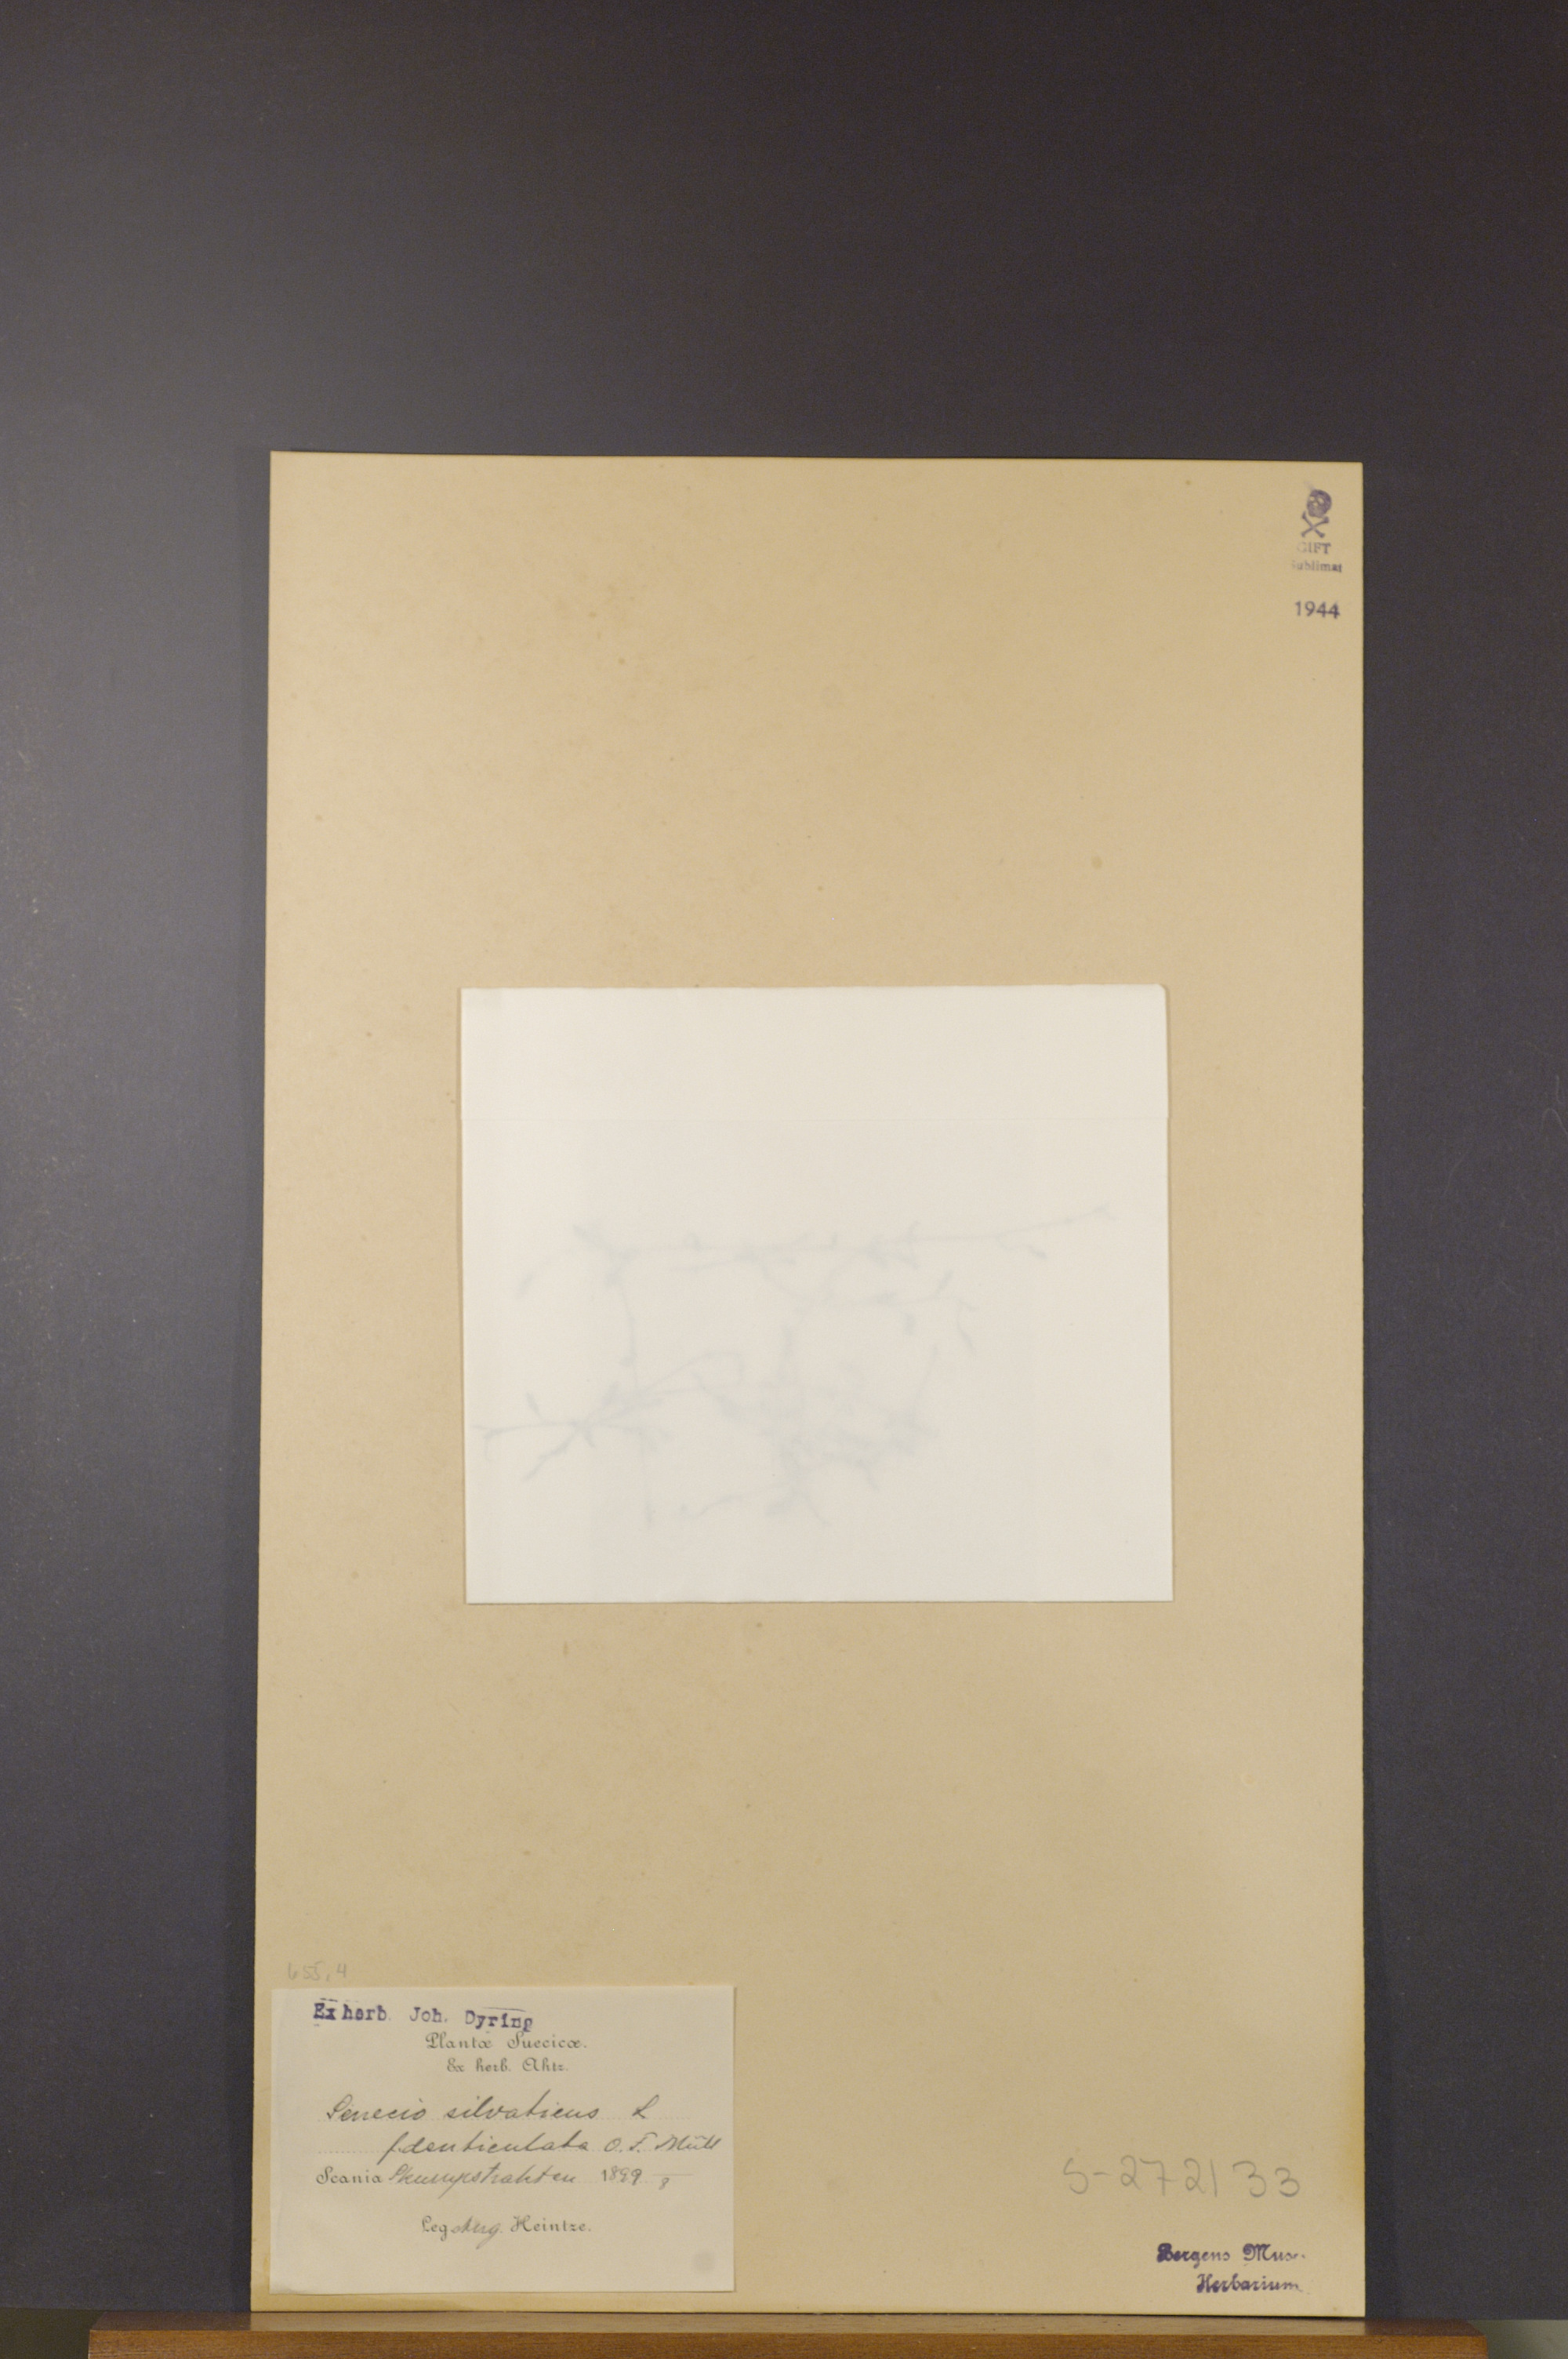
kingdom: Plantae
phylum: Tracheophyta
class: Magnoliopsida
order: Asterales
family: Asteraceae
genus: Senecio
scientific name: Senecio sylvaticus
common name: Woodland ragwort
